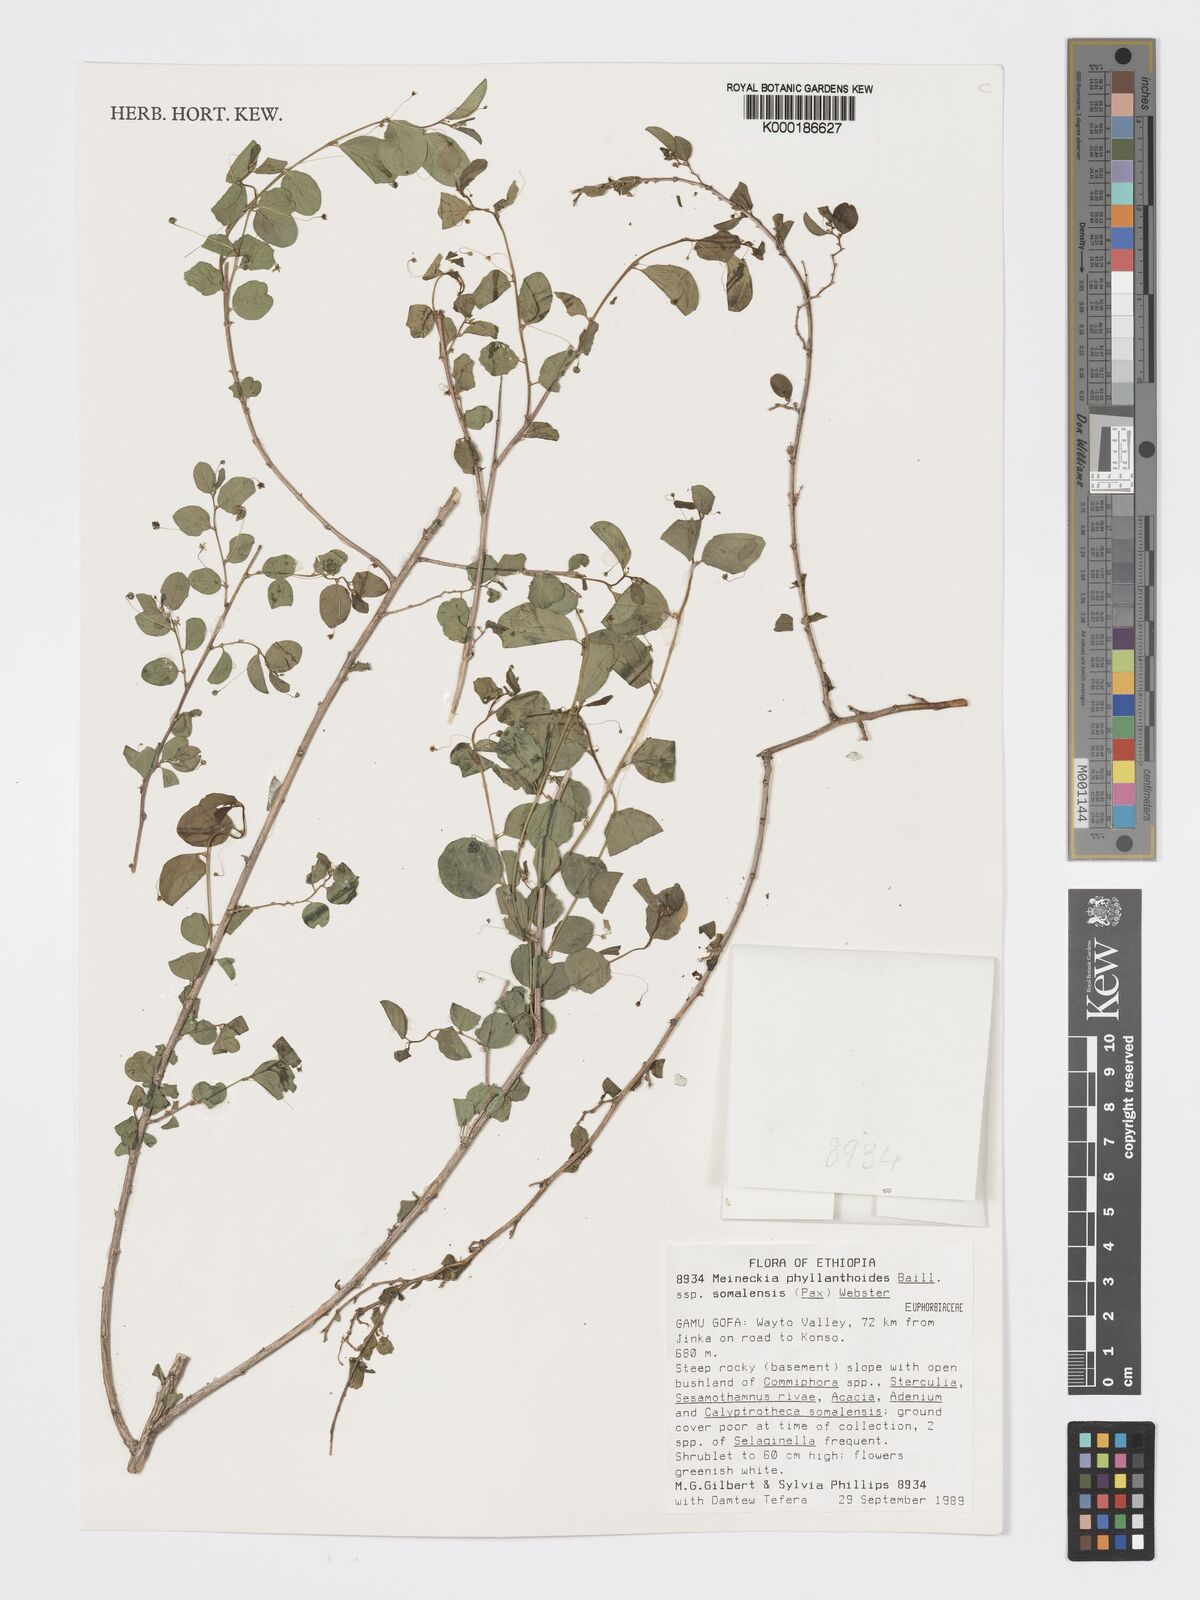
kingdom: Plantae
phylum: Tracheophyta
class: Magnoliopsida
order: Malpighiales
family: Phyllanthaceae
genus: Meineckia
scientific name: Meineckia phyllanthoides
